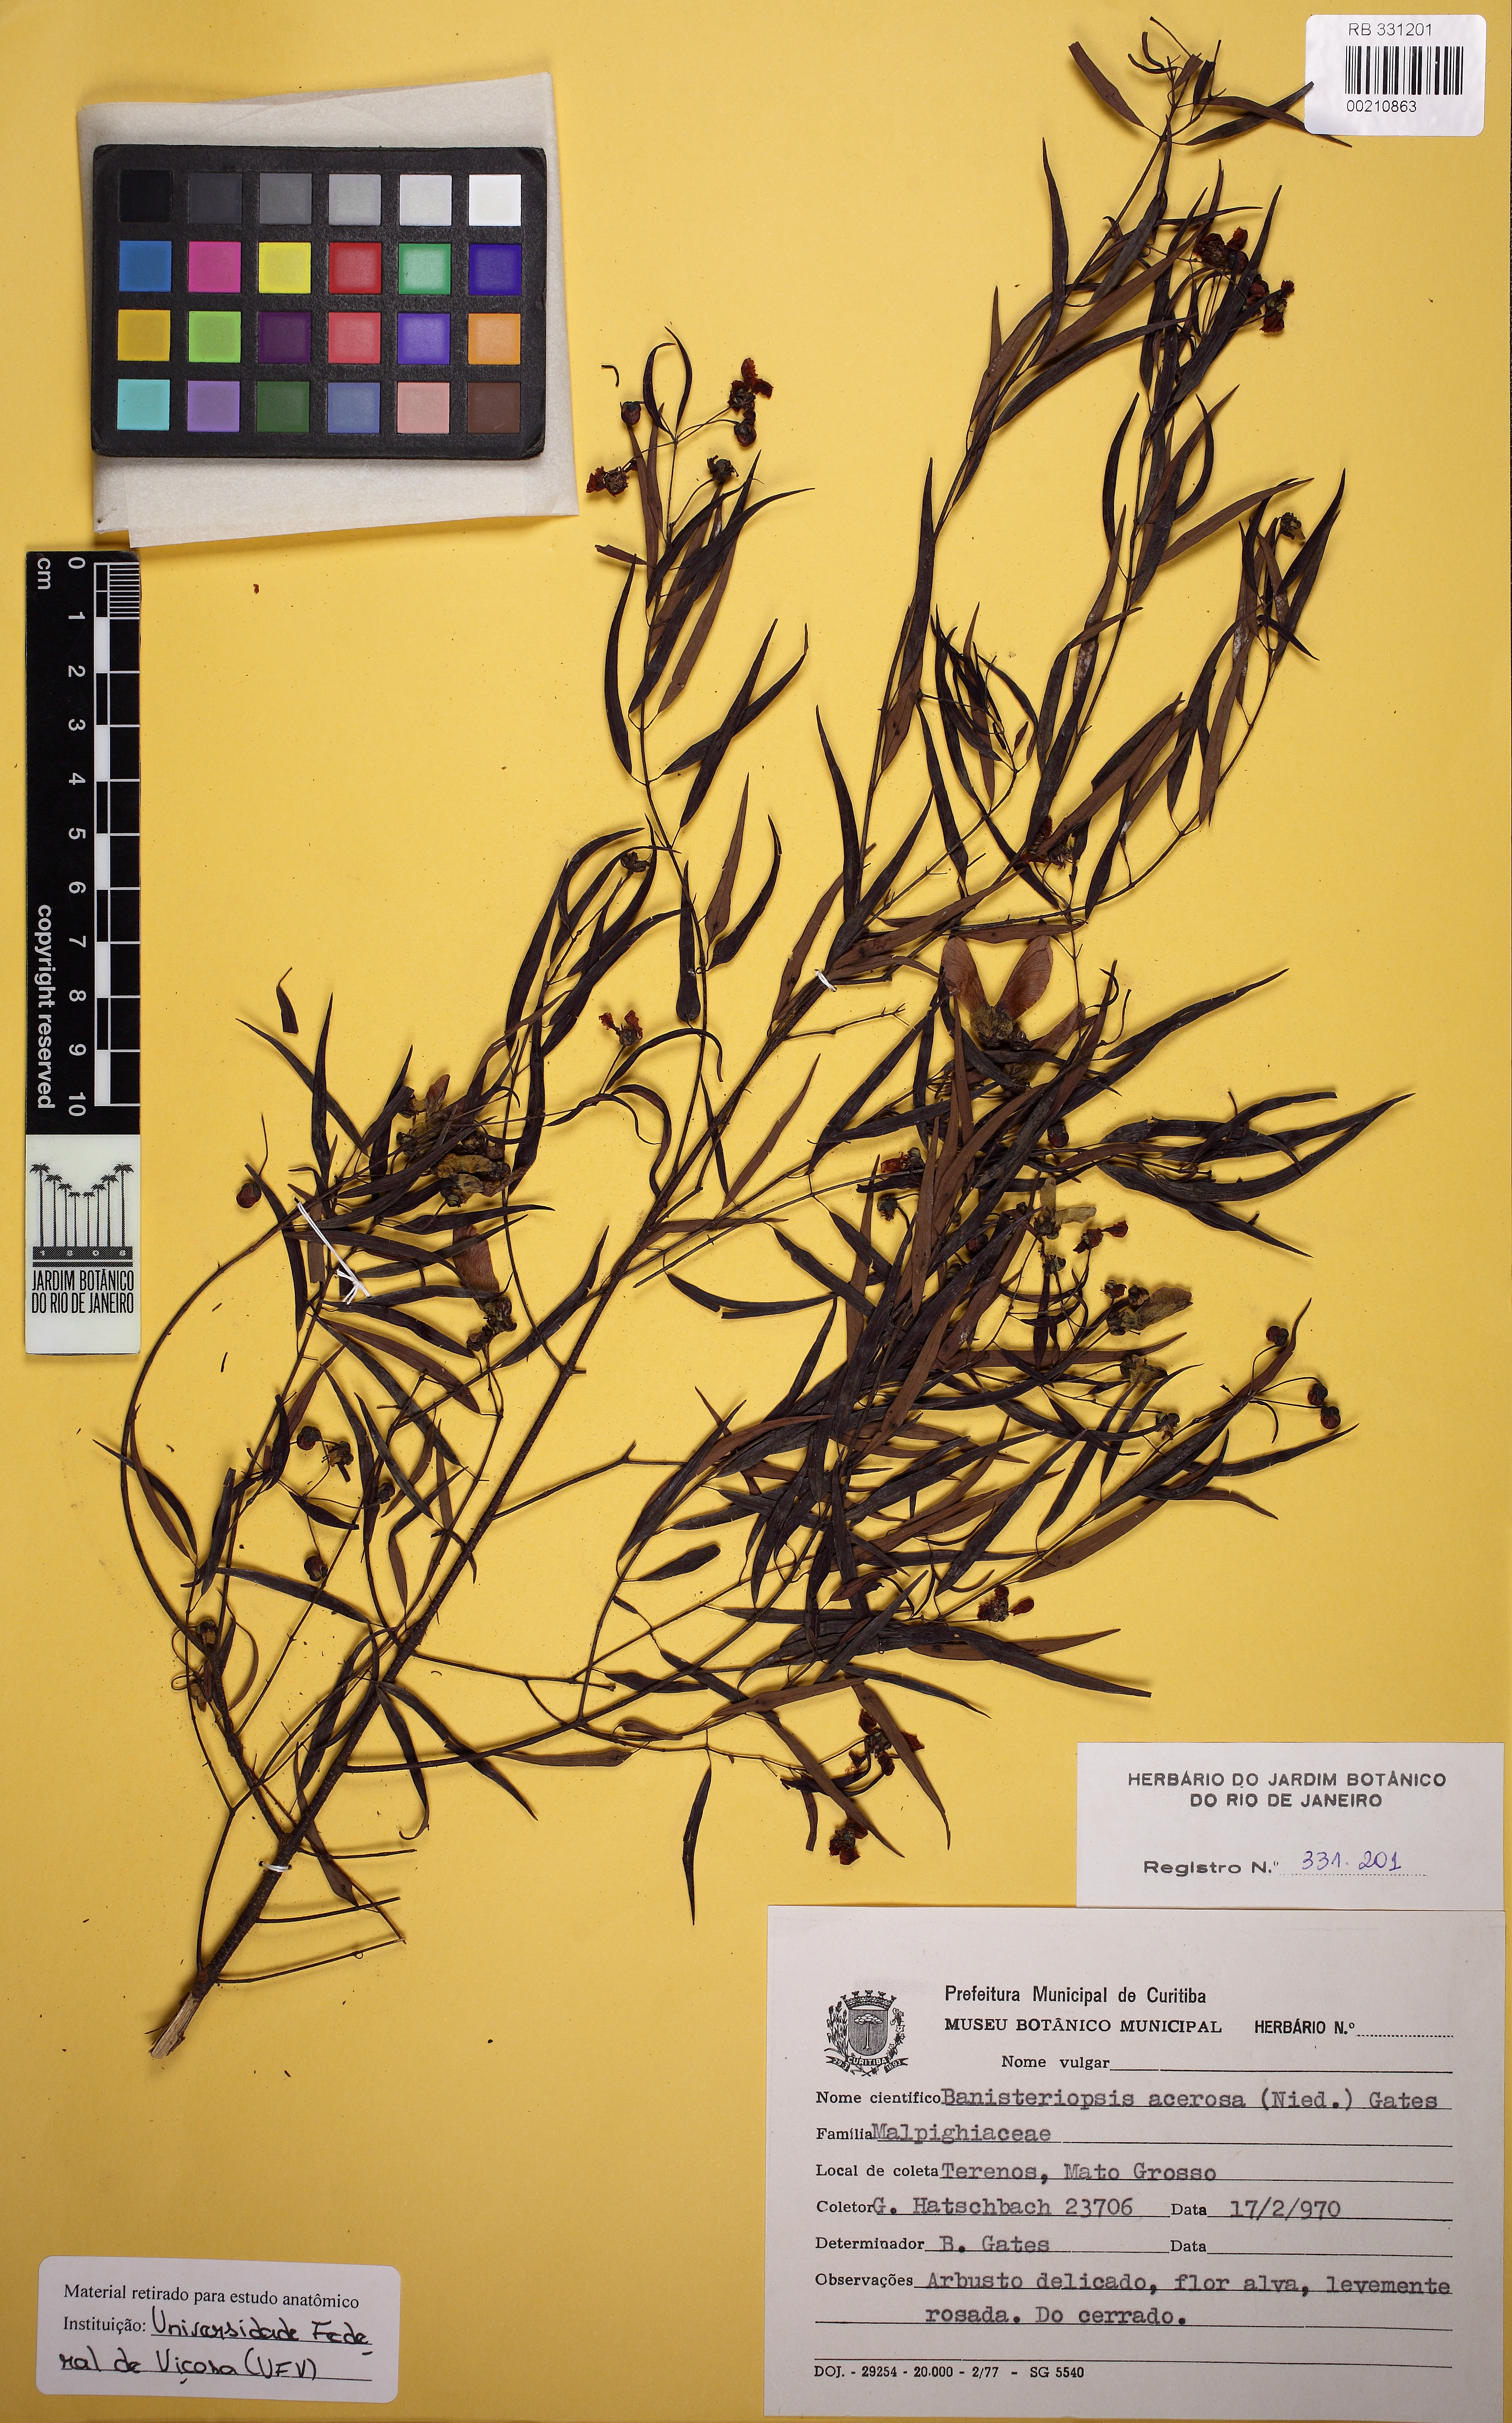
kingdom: Plantae
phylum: Tracheophyta
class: Magnoliopsida
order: Malpighiales
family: Malpighiaceae
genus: Banisteriopsis
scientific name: Banisteriopsis acerosa
